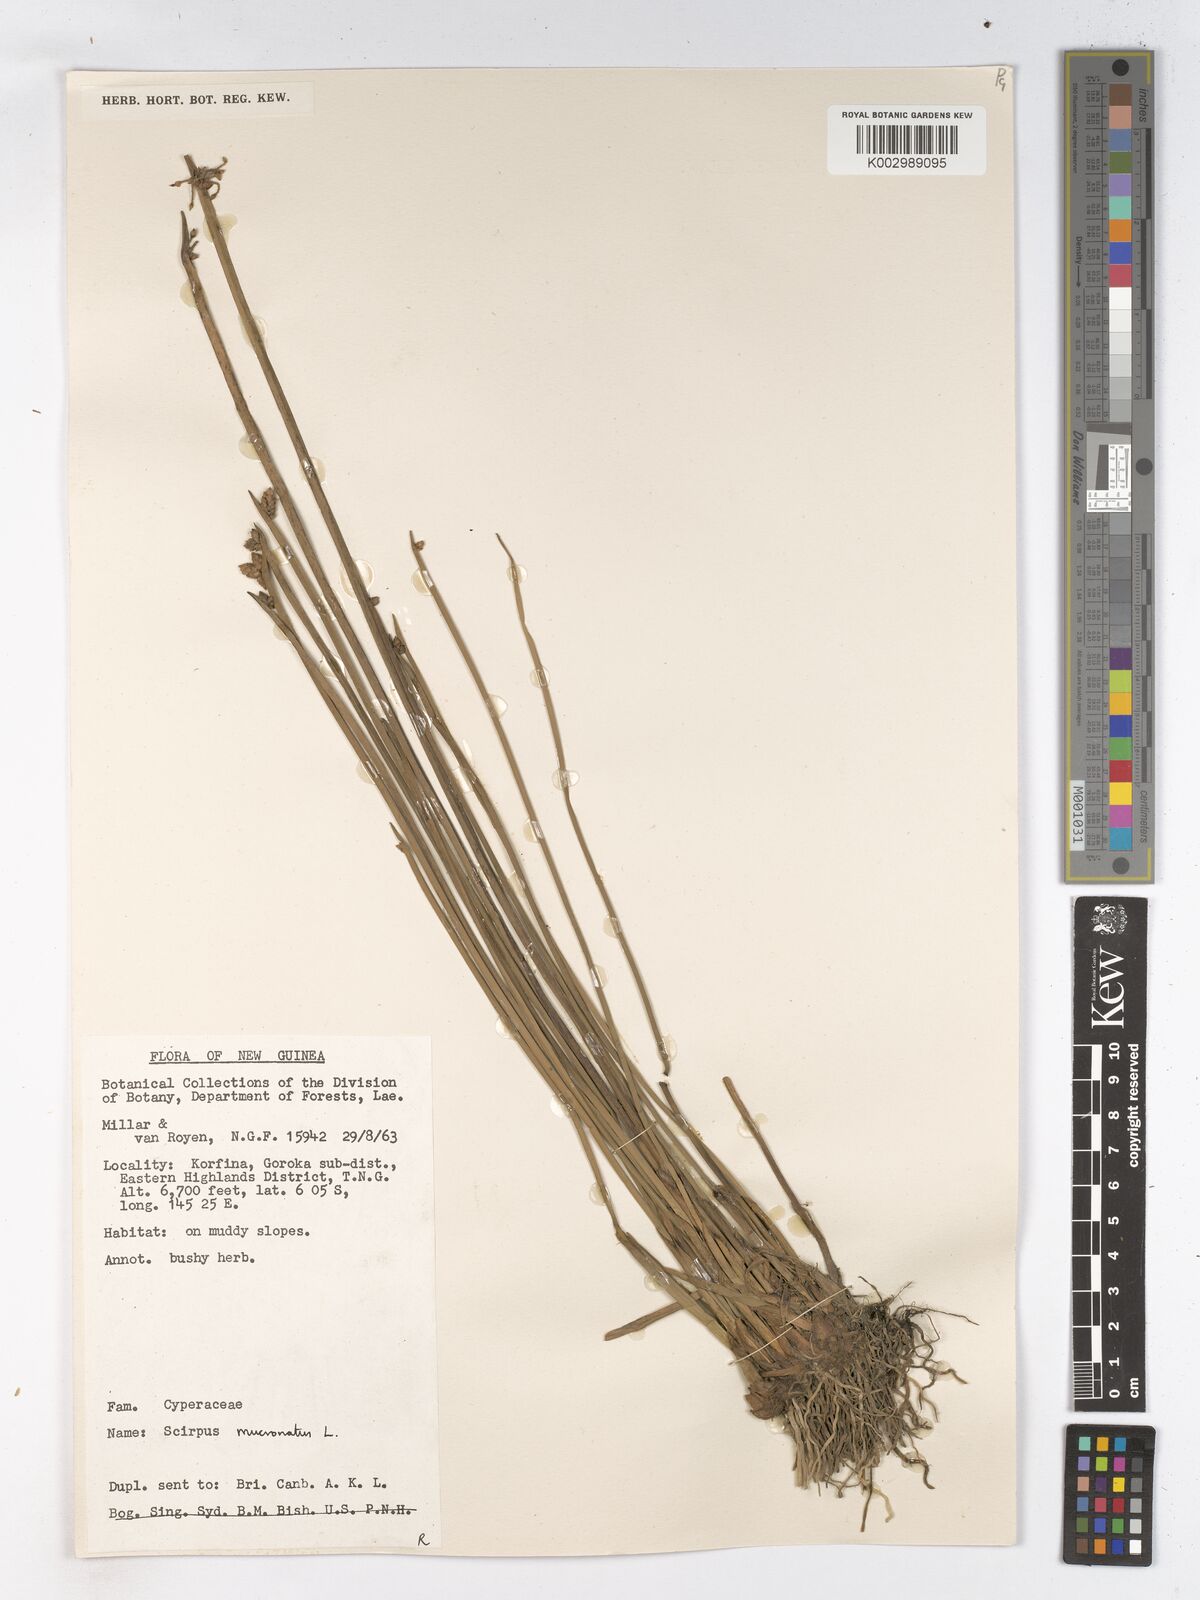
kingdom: Plantae
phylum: Tracheophyta
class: Liliopsida
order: Poales
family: Cyperaceae
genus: Schoenoplectiella
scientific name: Schoenoplectiella mucronata
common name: Bog bulrush
